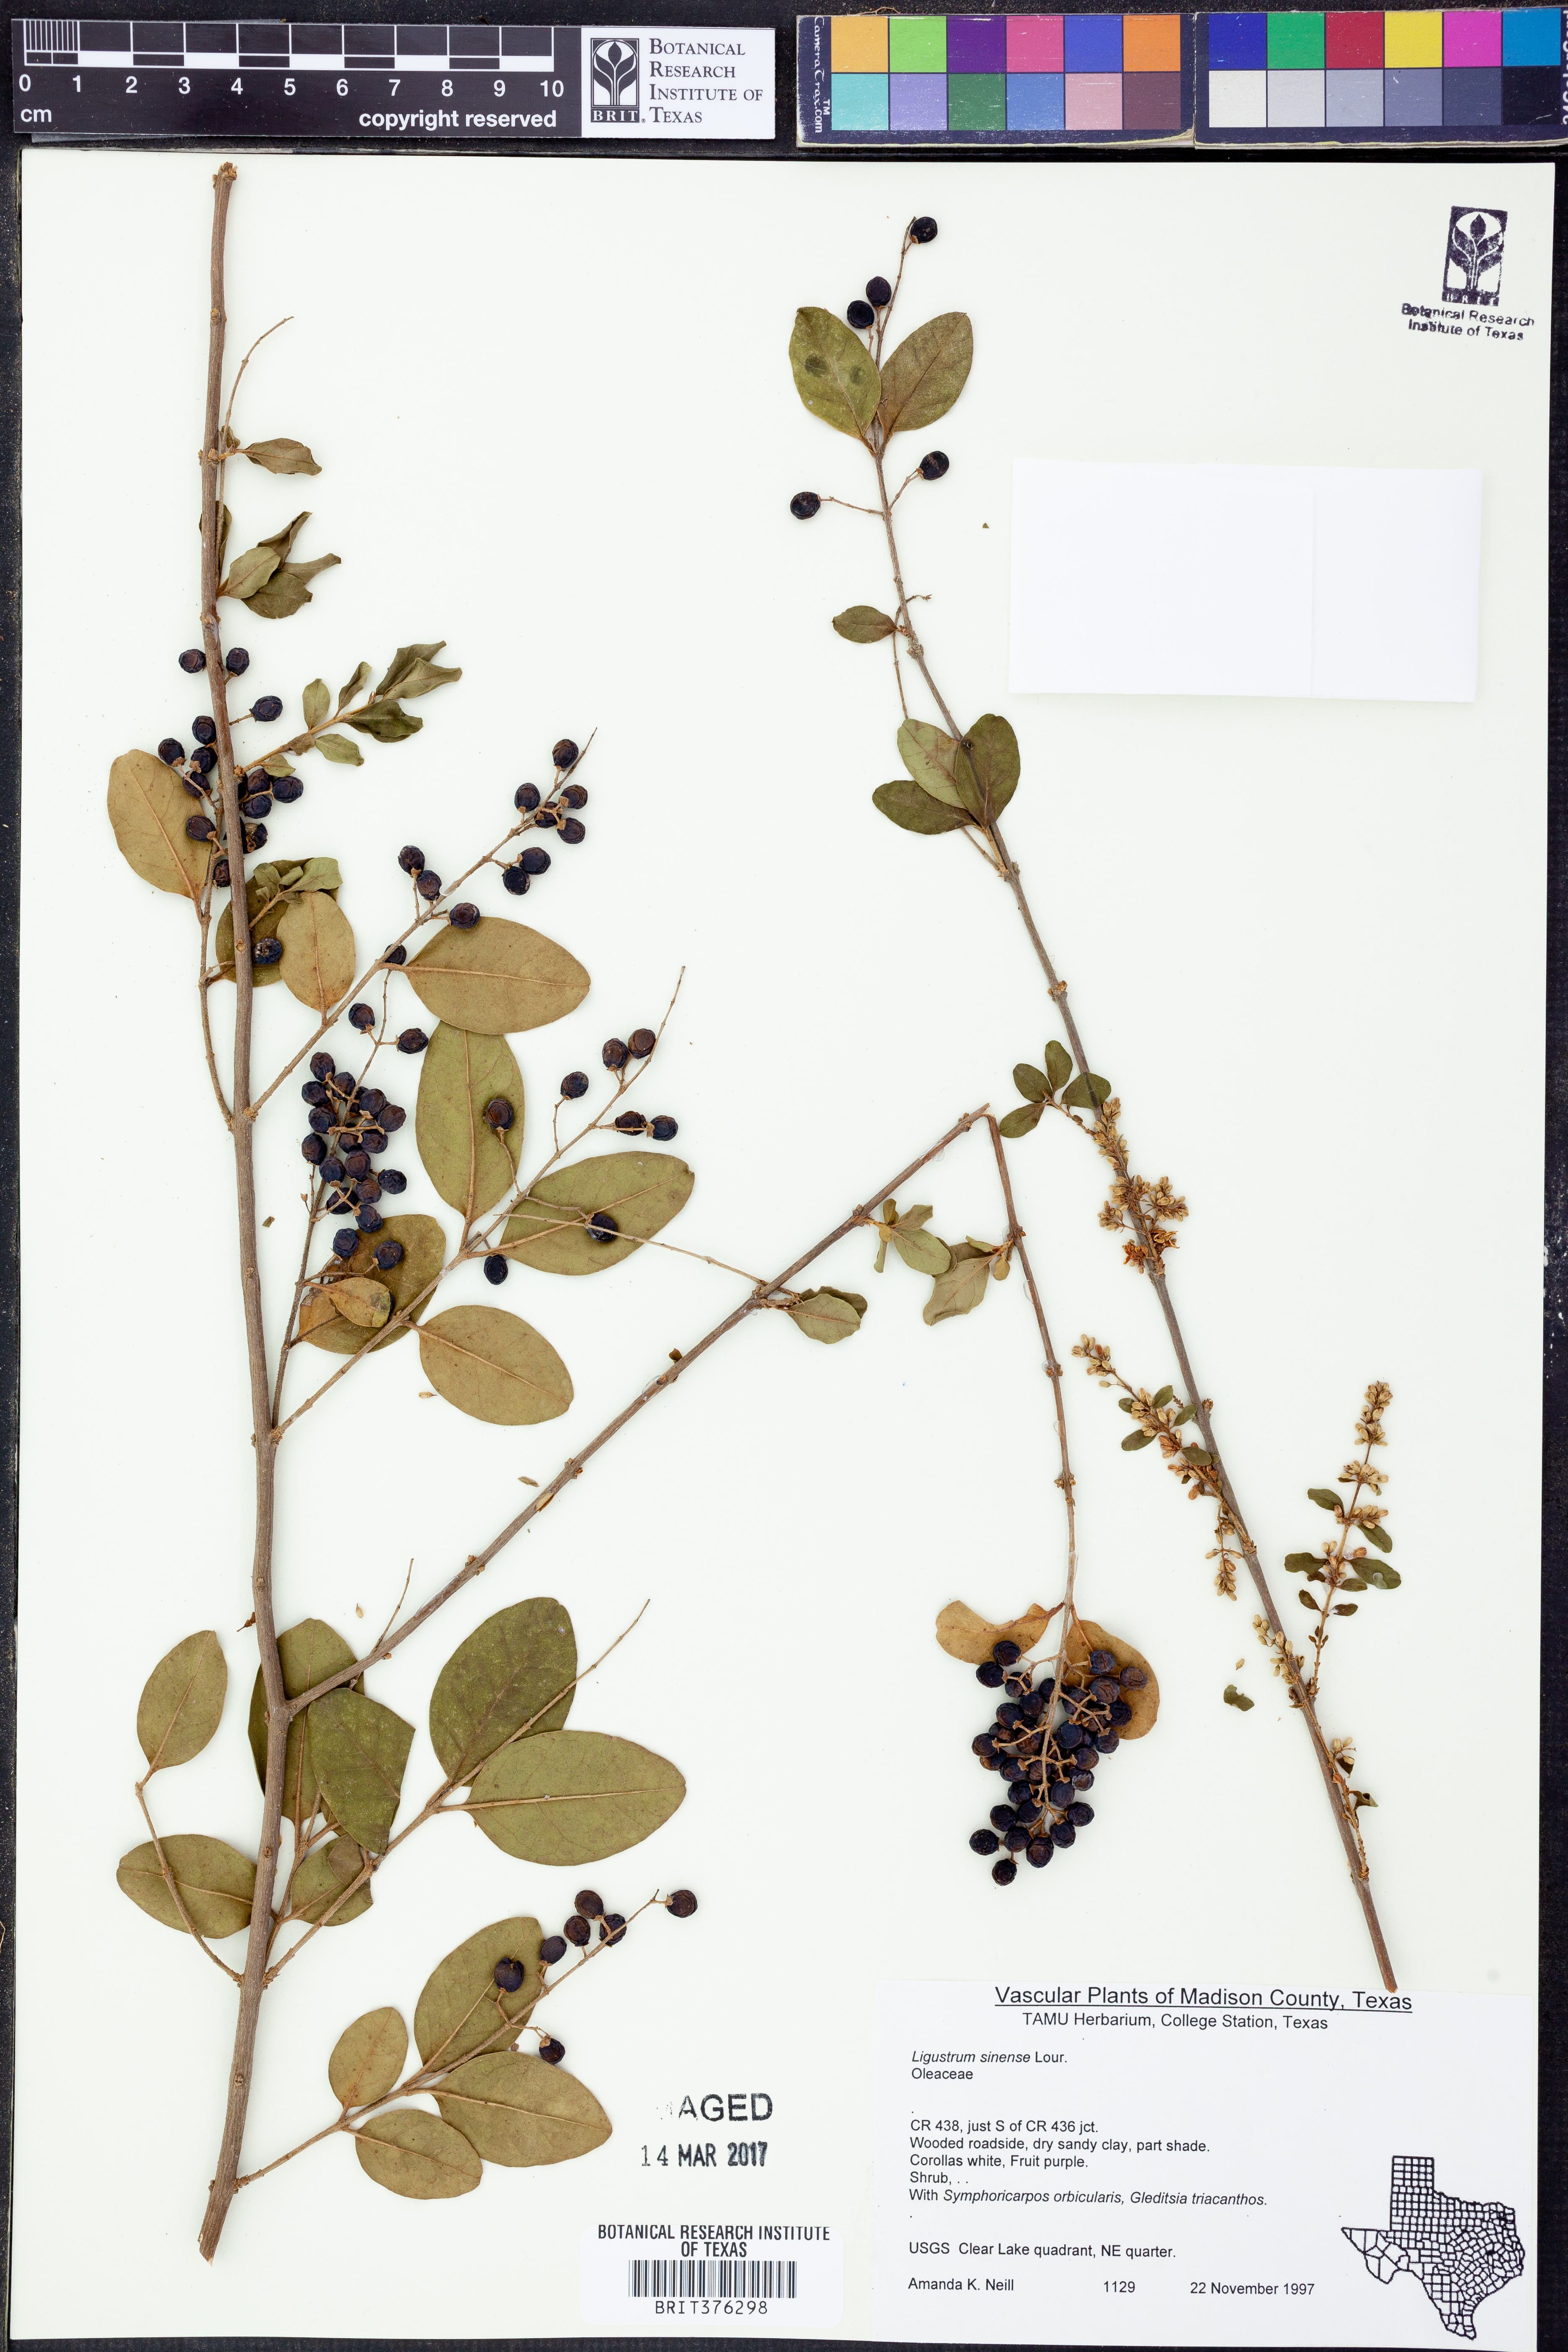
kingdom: Plantae
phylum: Tracheophyta
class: Magnoliopsida
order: Lamiales
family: Oleaceae
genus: Ligustrum
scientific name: Ligustrum sinense
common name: Chinese privet
